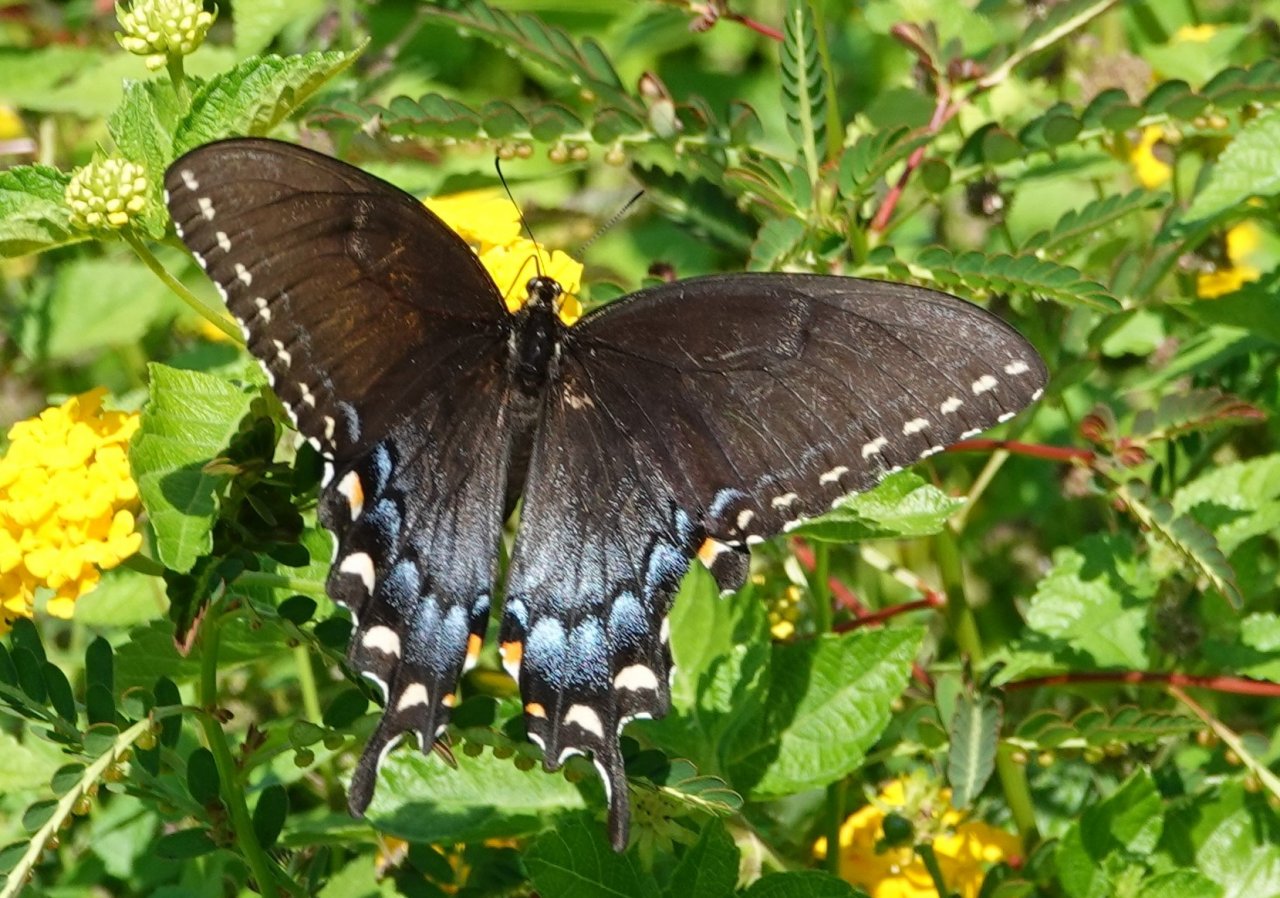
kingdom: Animalia
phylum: Arthropoda
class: Insecta
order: Lepidoptera
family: Papilionidae
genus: Pterourus
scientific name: Pterourus glaucus
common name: Eastern Tiger Swallowtail
